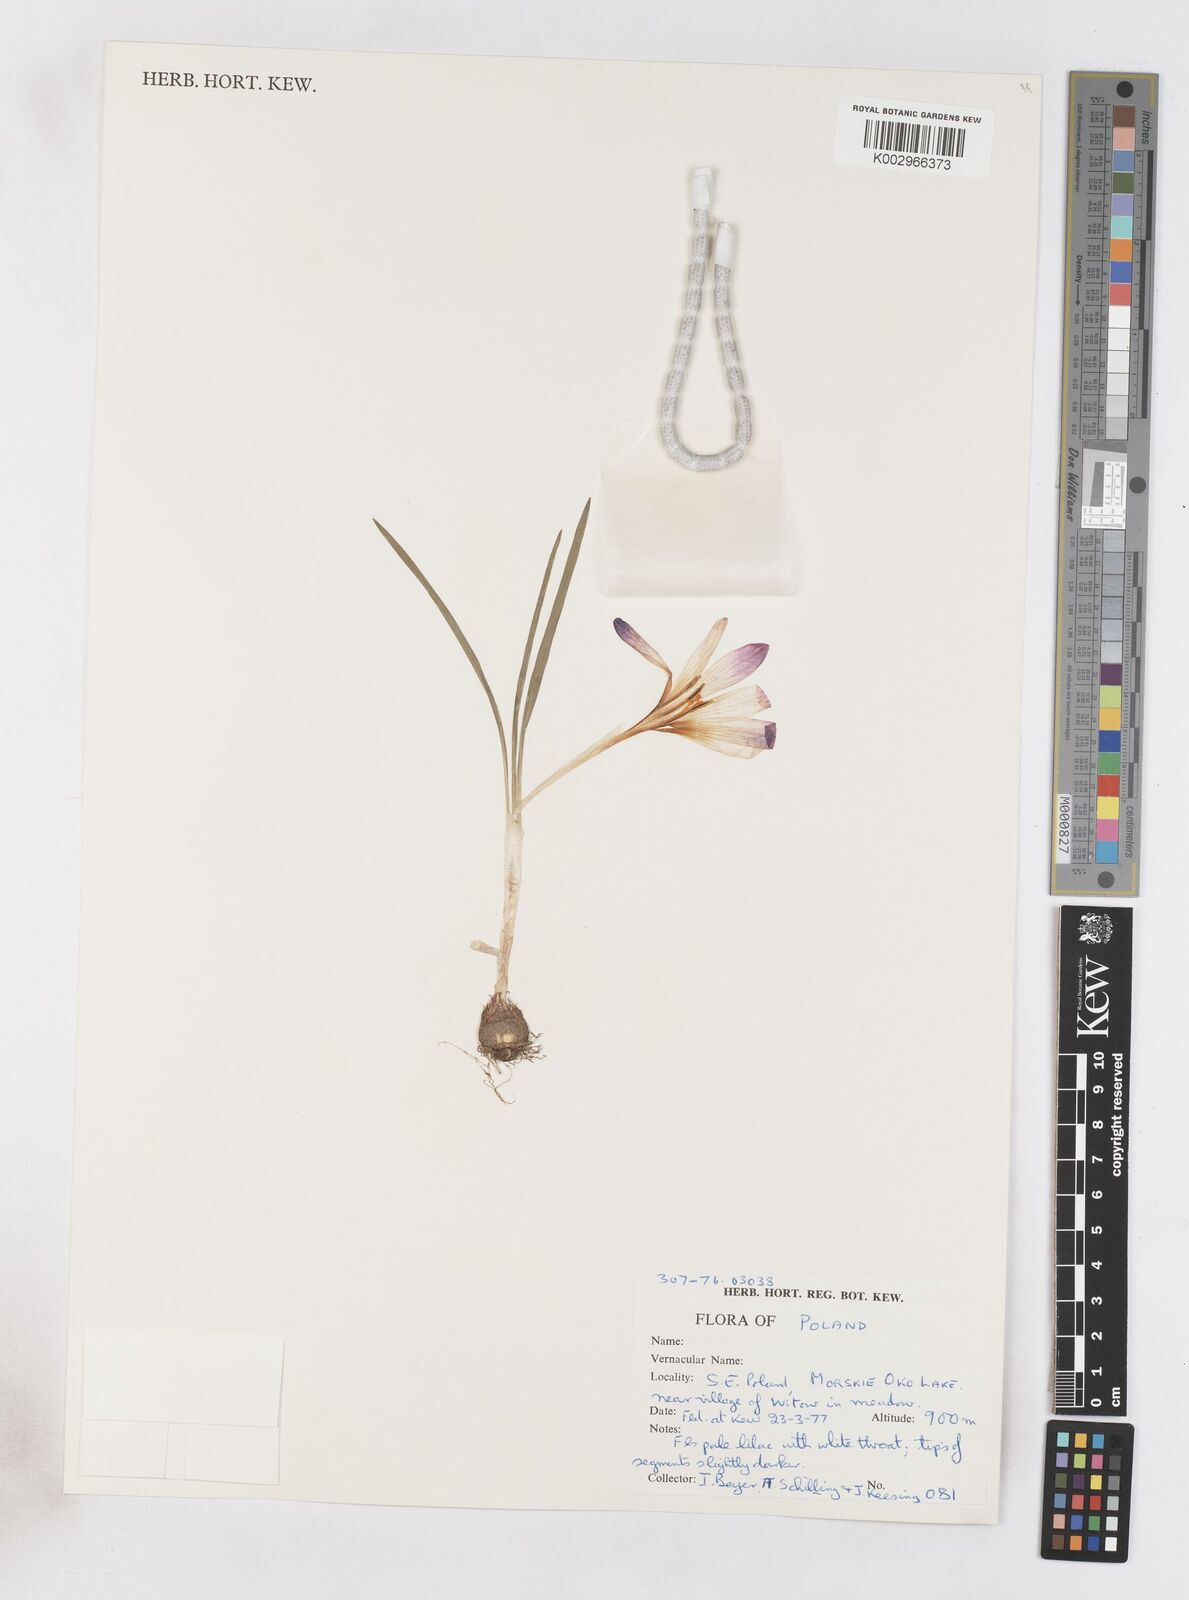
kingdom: Plantae
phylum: Tracheophyta
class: Liliopsida
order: Asparagales
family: Iridaceae
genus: Crocus
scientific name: Crocus vernus
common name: Spring crocus
